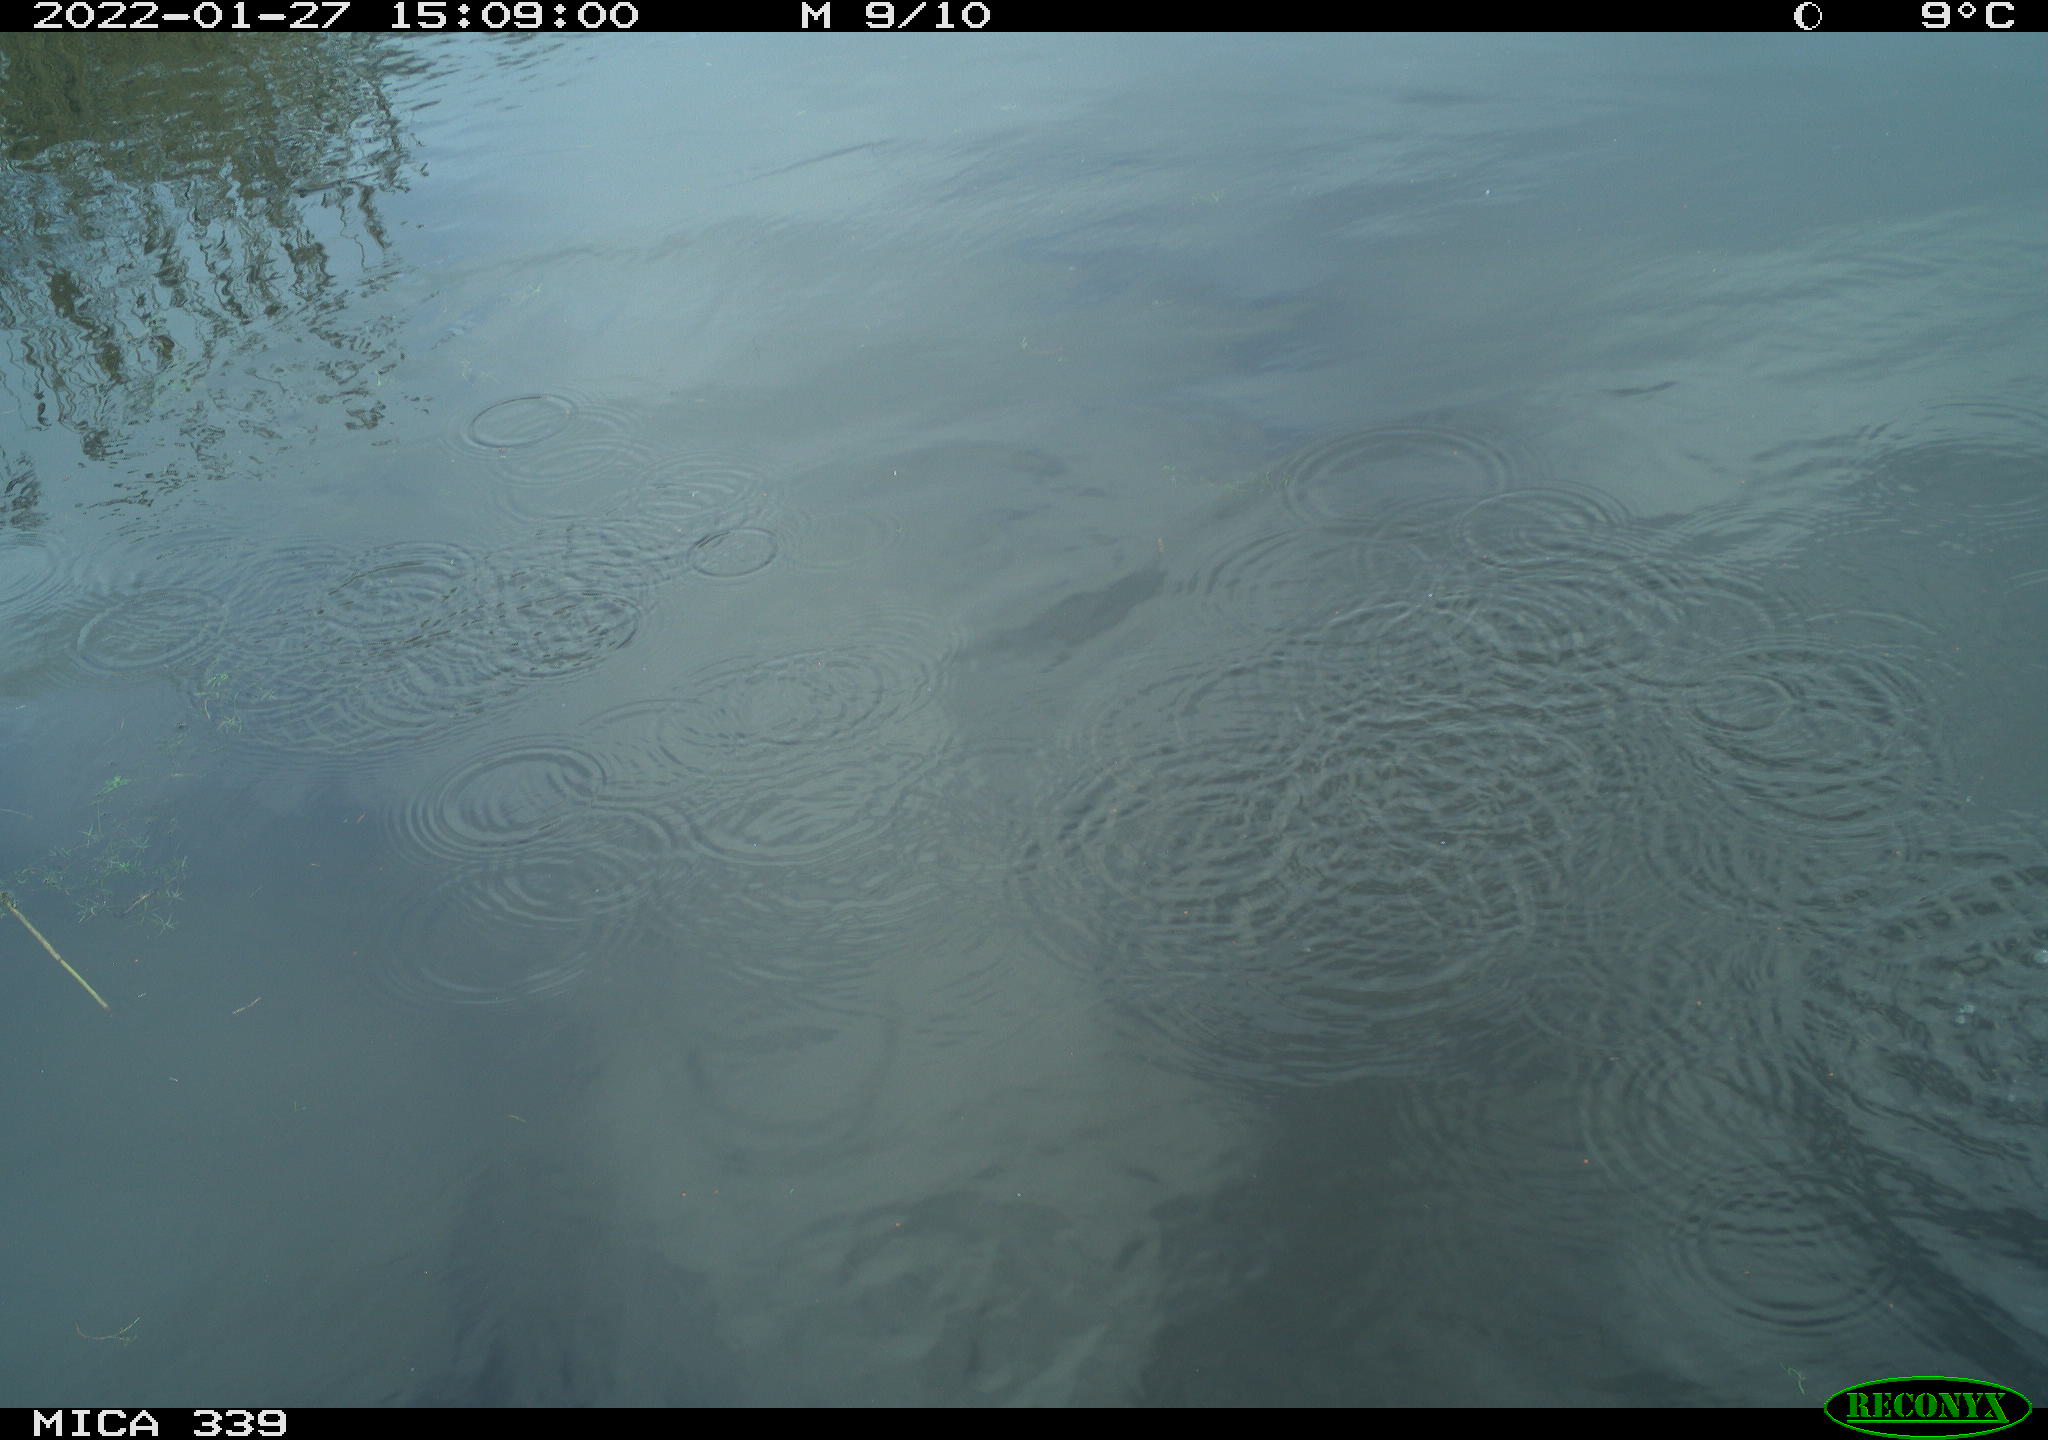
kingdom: Animalia
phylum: Chordata
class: Aves
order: Anseriformes
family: Anatidae
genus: Anas
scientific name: Anas platyrhynchos
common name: Mallard
